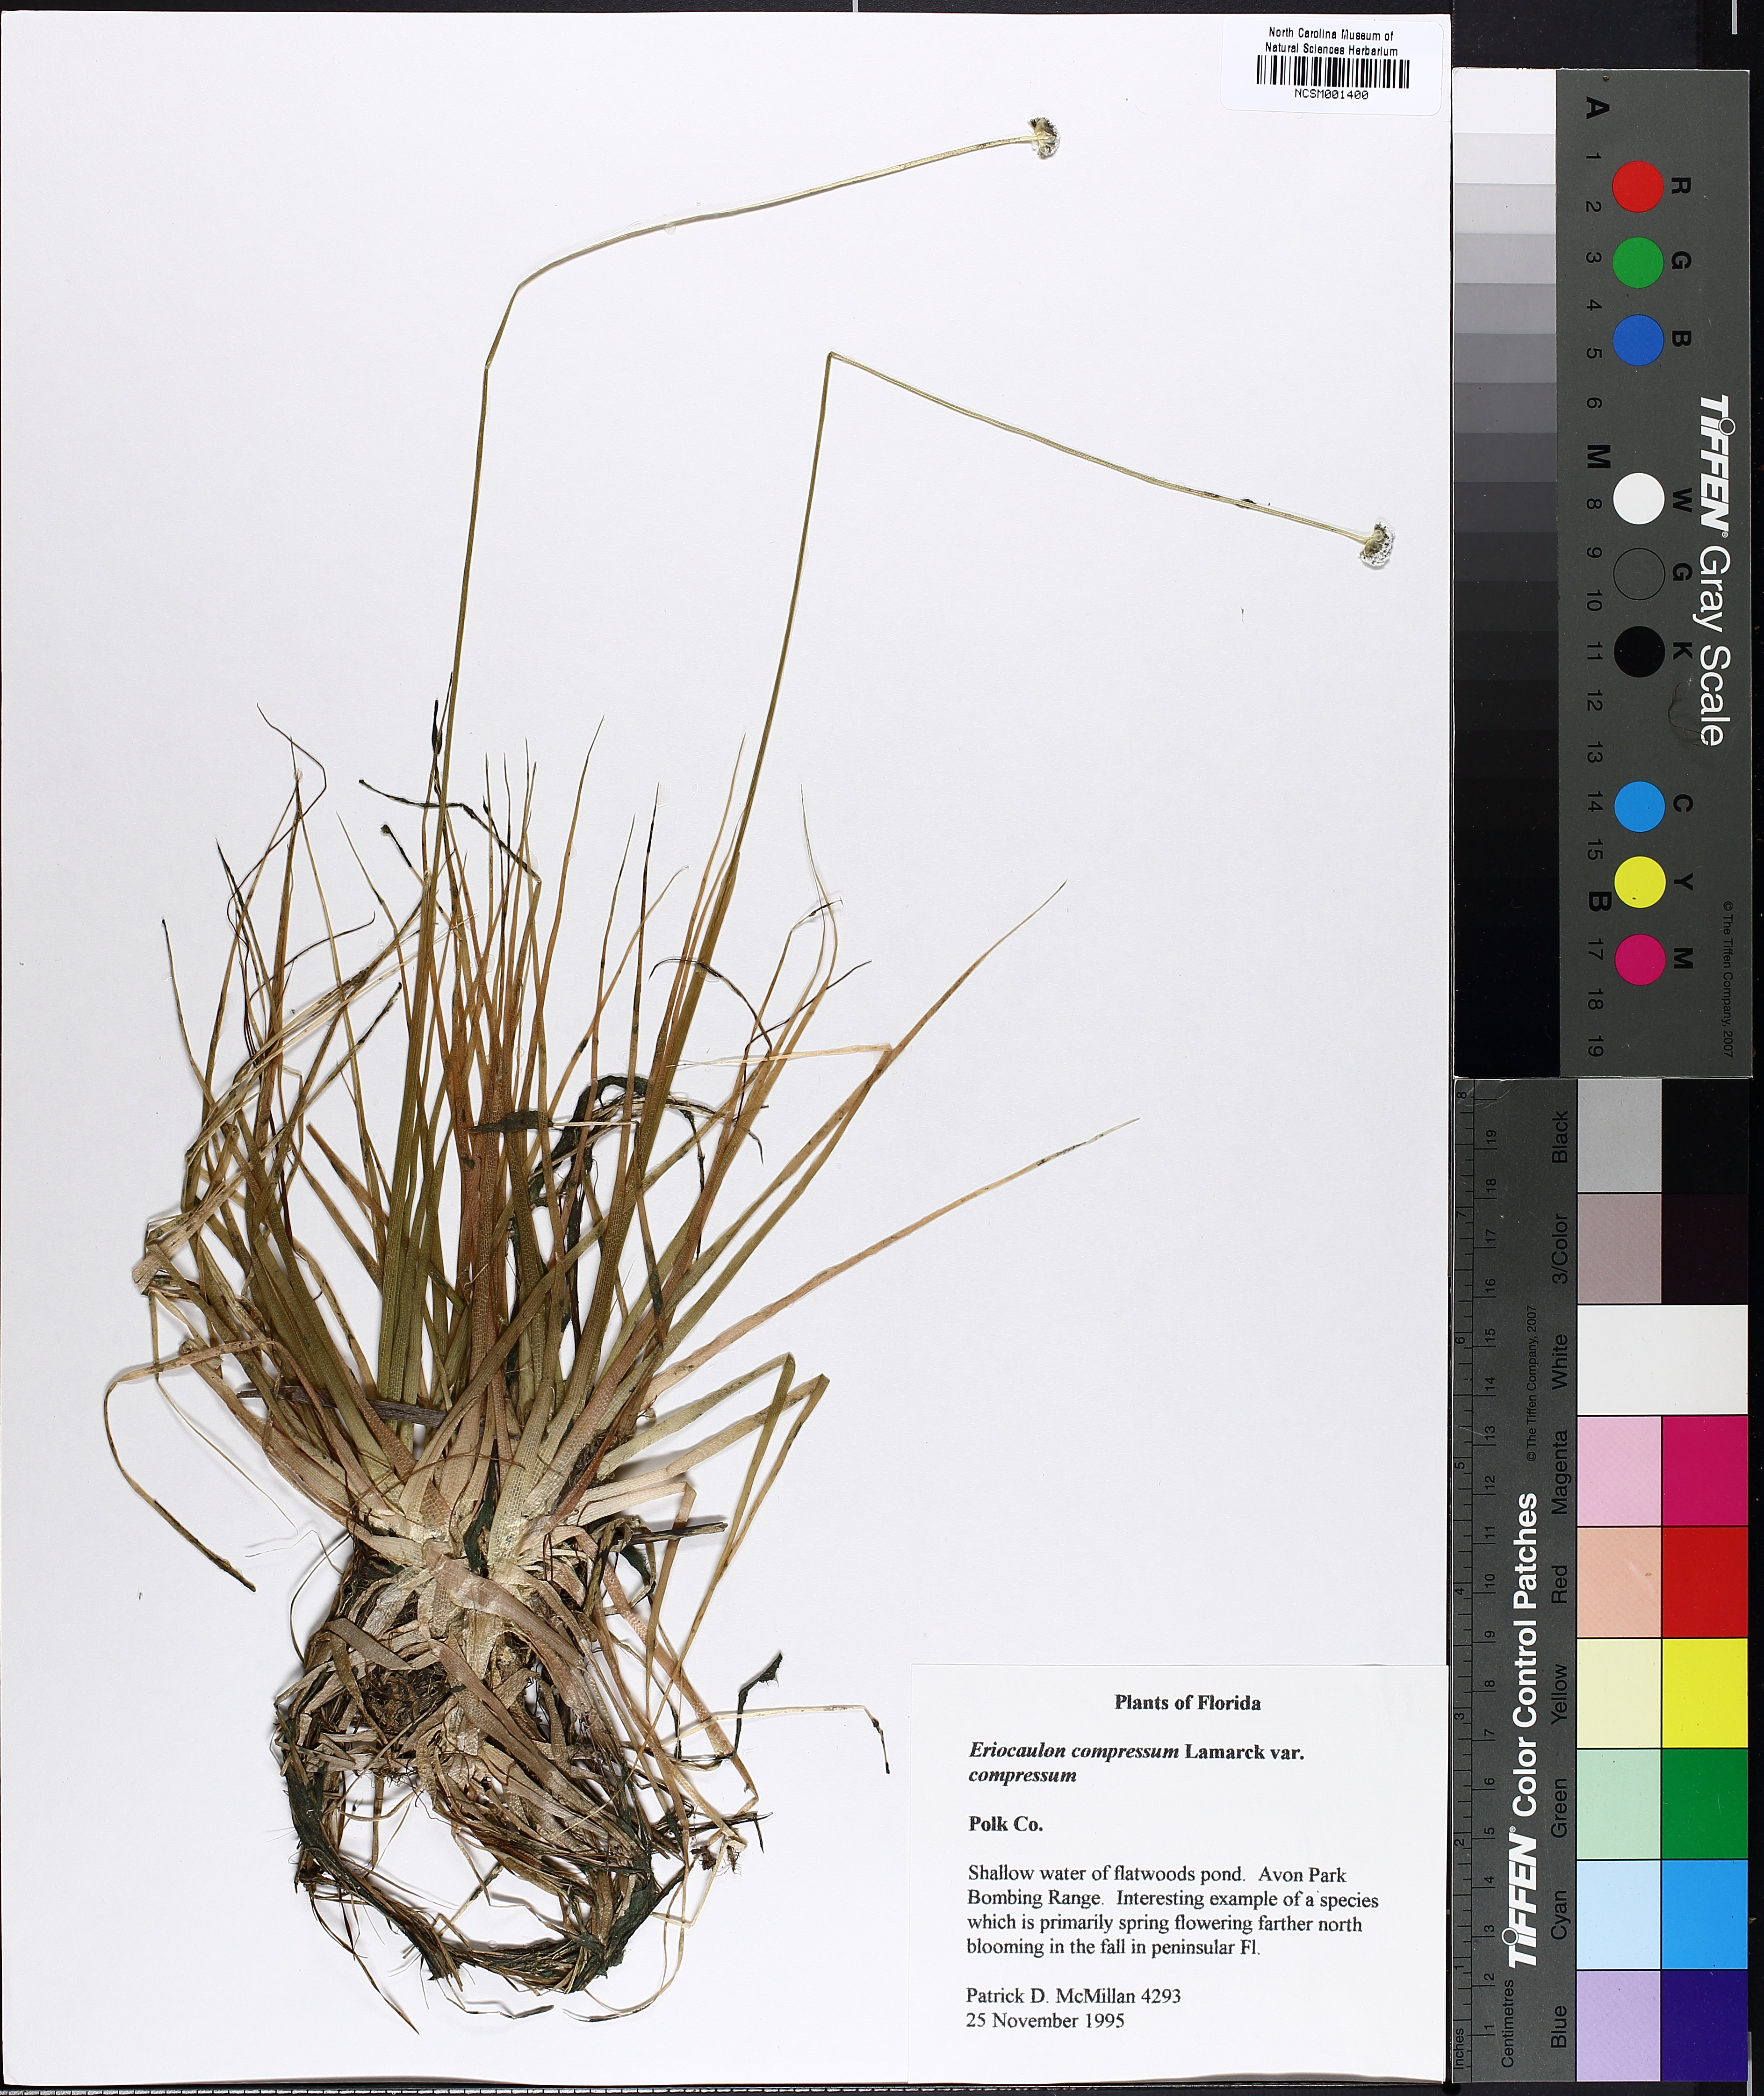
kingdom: Plantae
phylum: Tracheophyta
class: Liliopsida
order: Poales
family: Eriocaulaceae
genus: Eriocaulon
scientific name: Eriocaulon compressum
